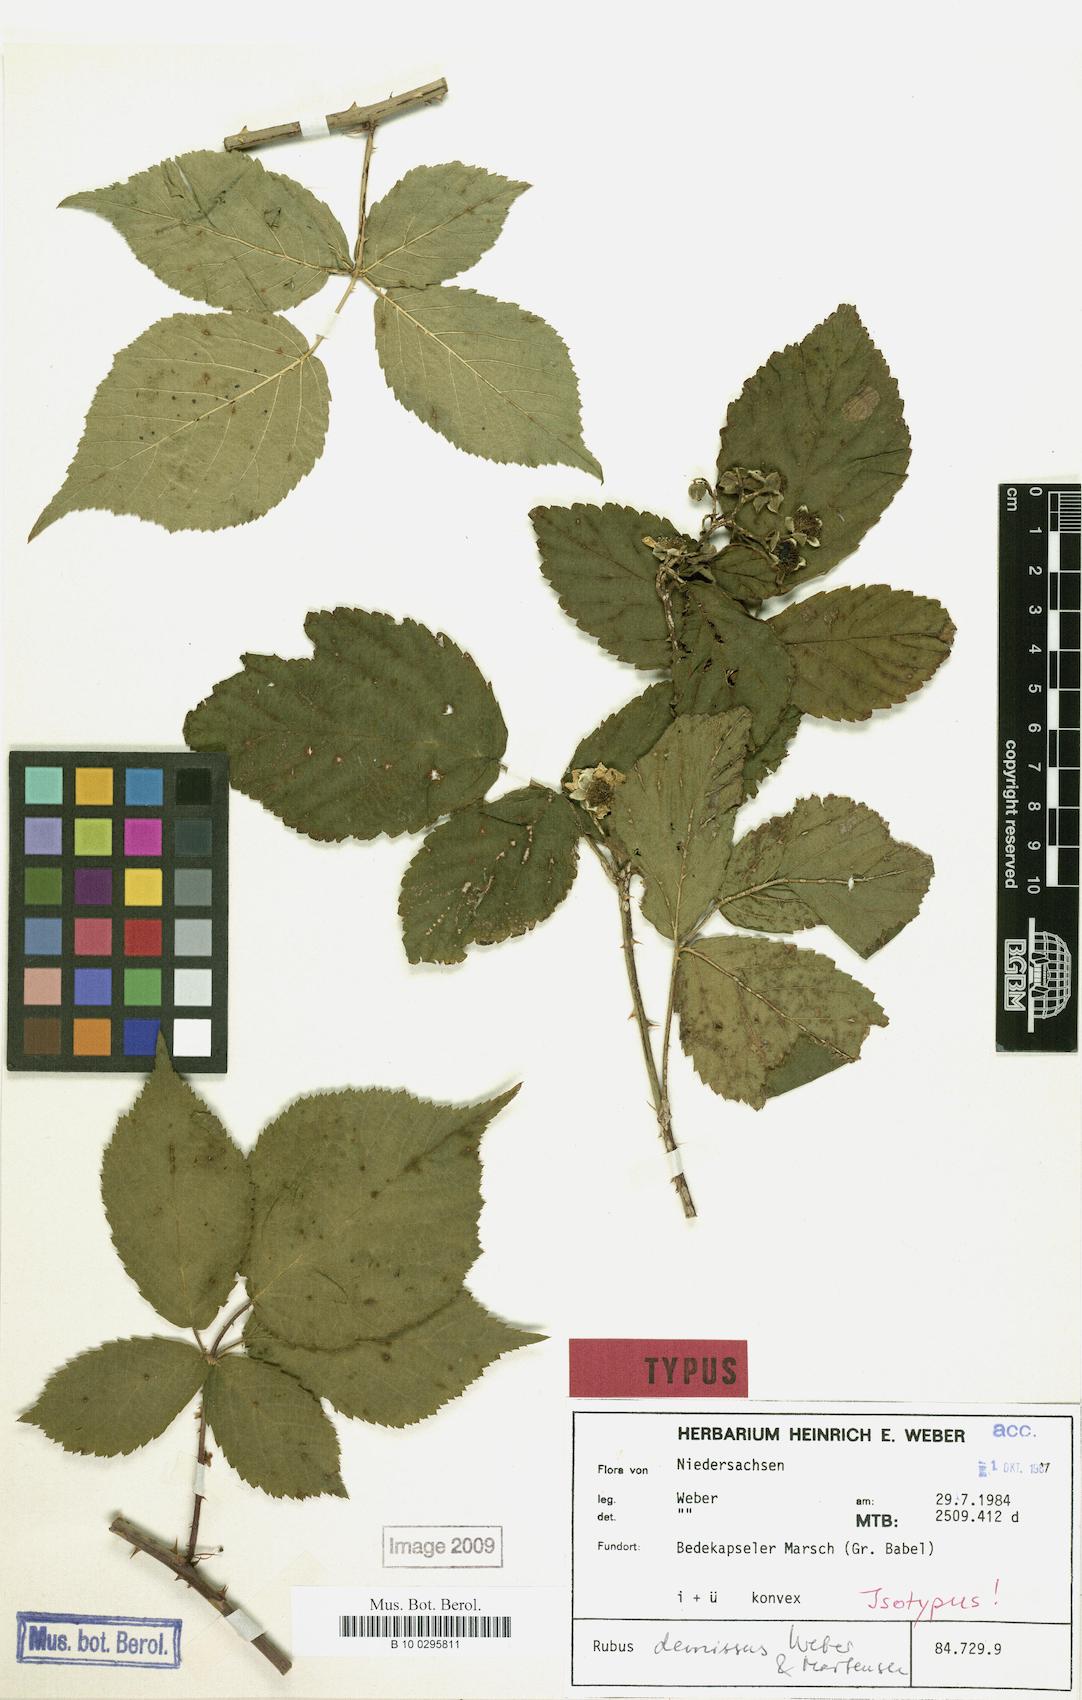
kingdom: Plantae
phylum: Tracheophyta
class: Magnoliopsida
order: Rosales
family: Rosaceae
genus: Rubus
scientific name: Rubus perdemissus
